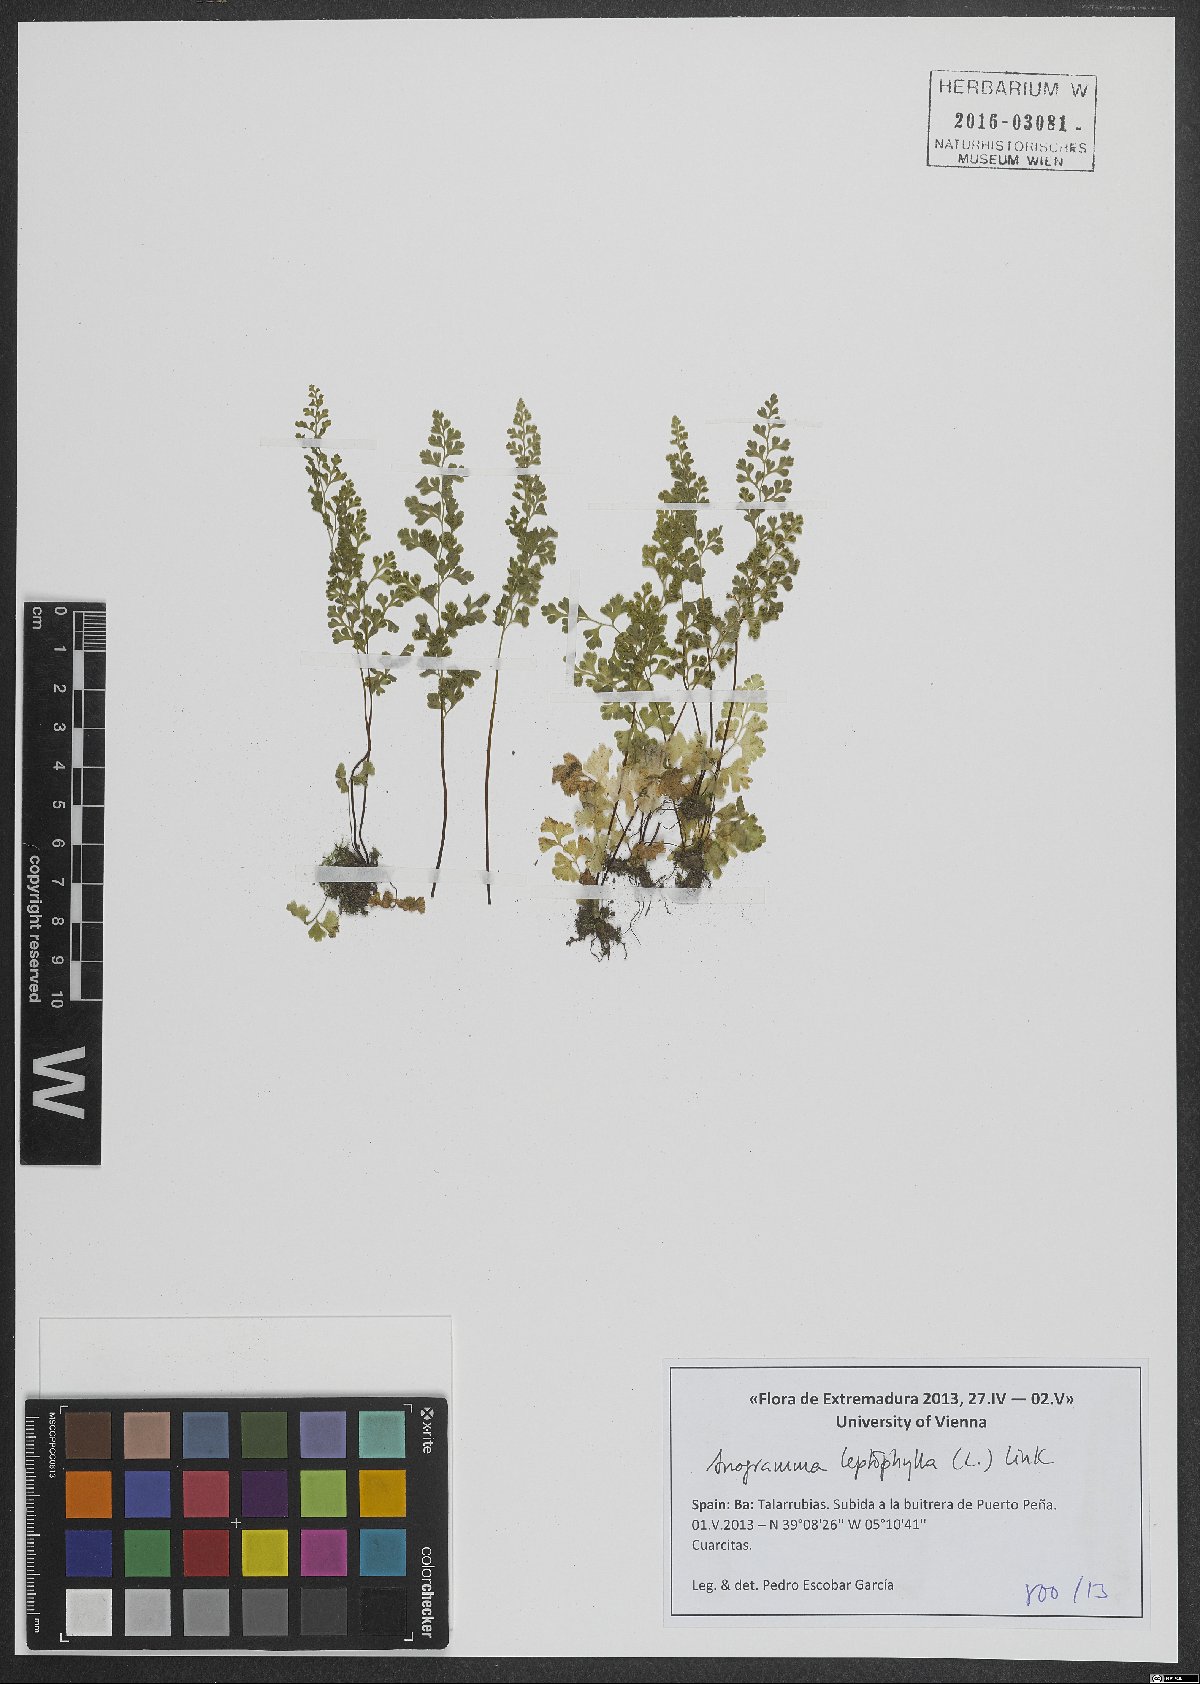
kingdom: Plantae
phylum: Tracheophyta
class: Polypodiopsida
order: Polypodiales
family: Pteridaceae
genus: Anogramma
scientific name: Anogramma leptophylla
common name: Jersey fern
